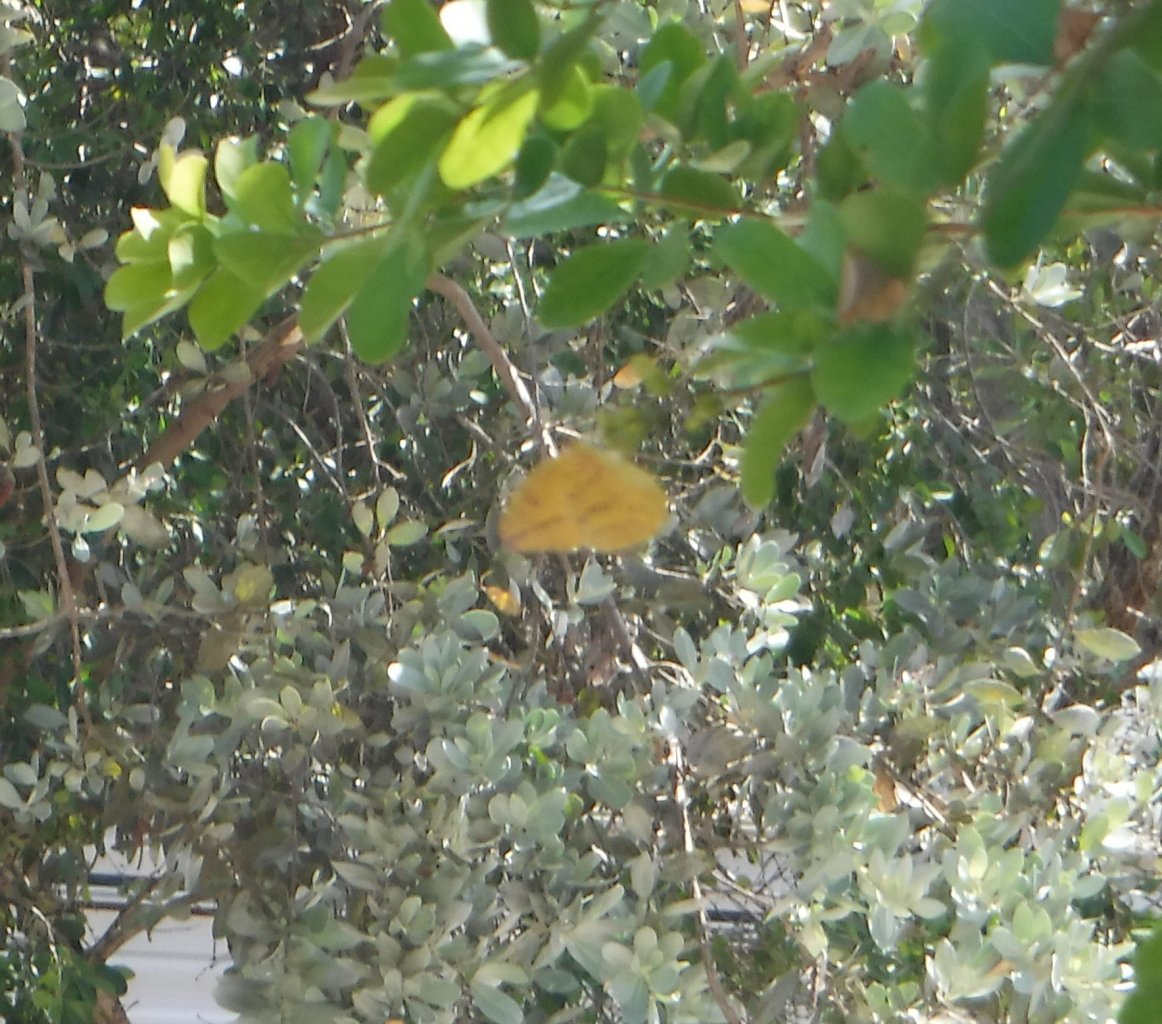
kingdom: Animalia
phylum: Arthropoda
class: Insecta
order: Lepidoptera
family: Pieridae
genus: Phoebis
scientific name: Phoebis agarithe
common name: Large Orange Sulphur
